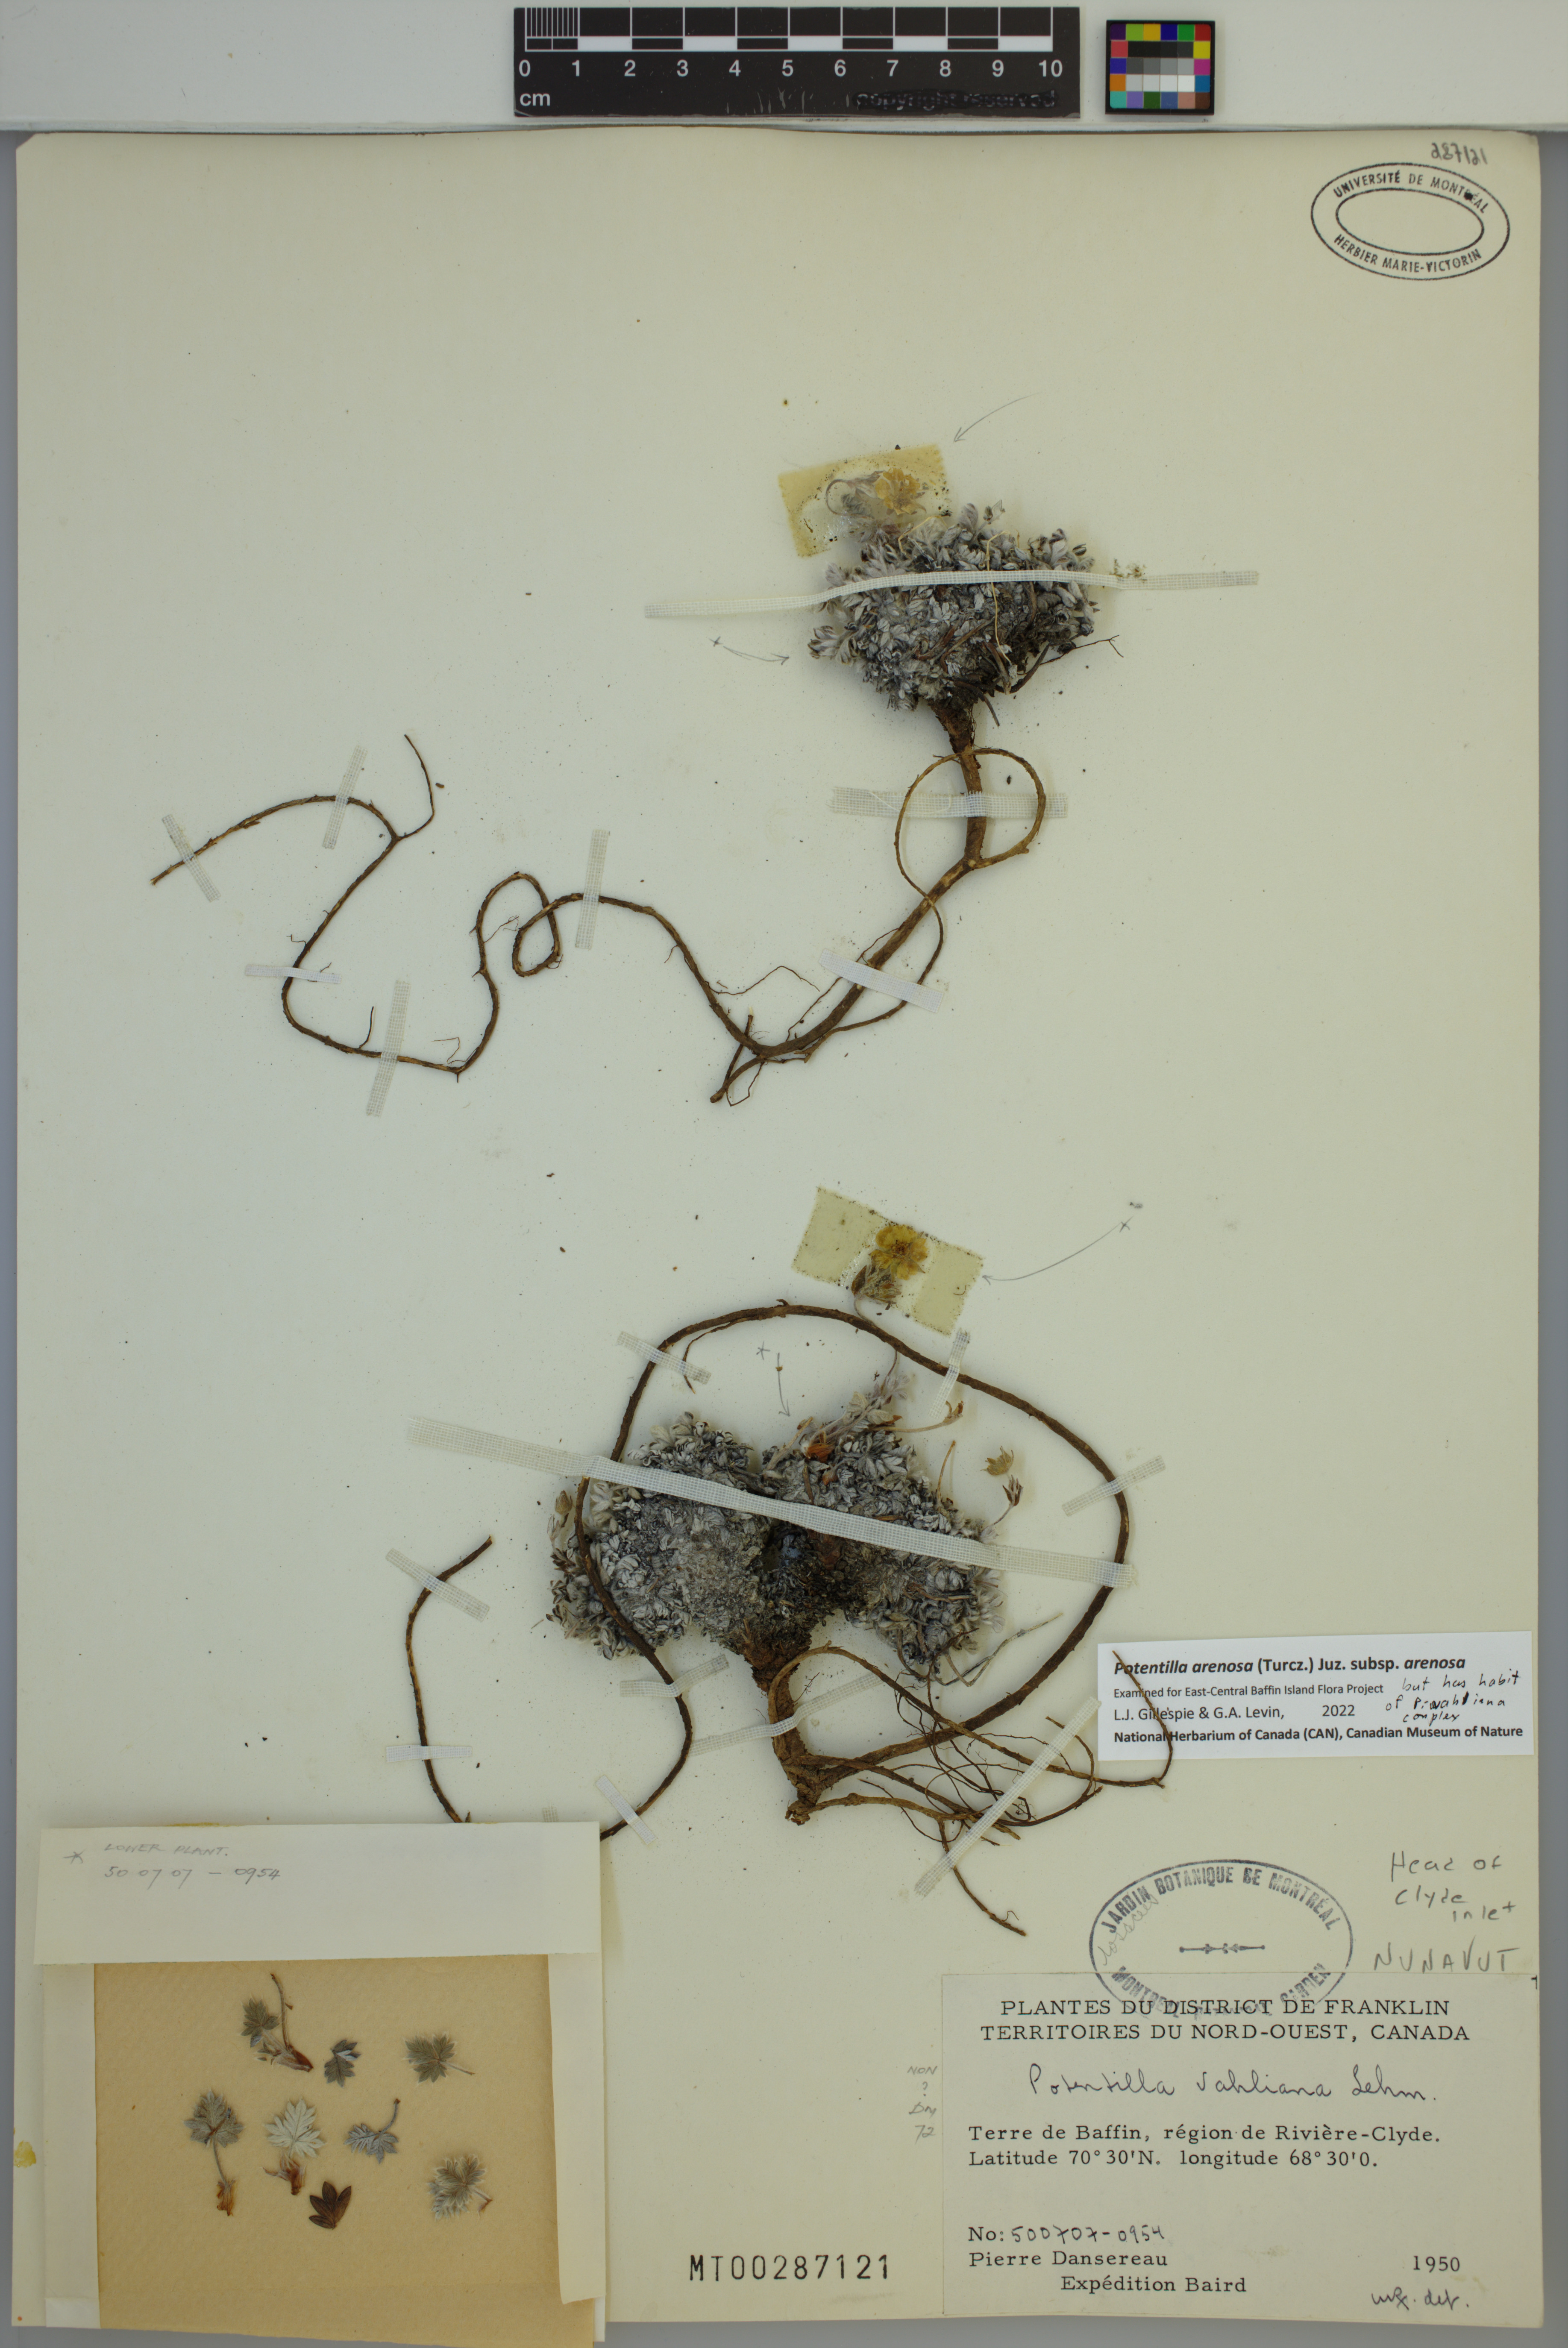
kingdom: Plantae
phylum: Tracheophyta
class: Magnoliopsida
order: Rosales
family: Rosaceae
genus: Potentilla
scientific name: Potentilla arenosa
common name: Bluff cinquefoil
